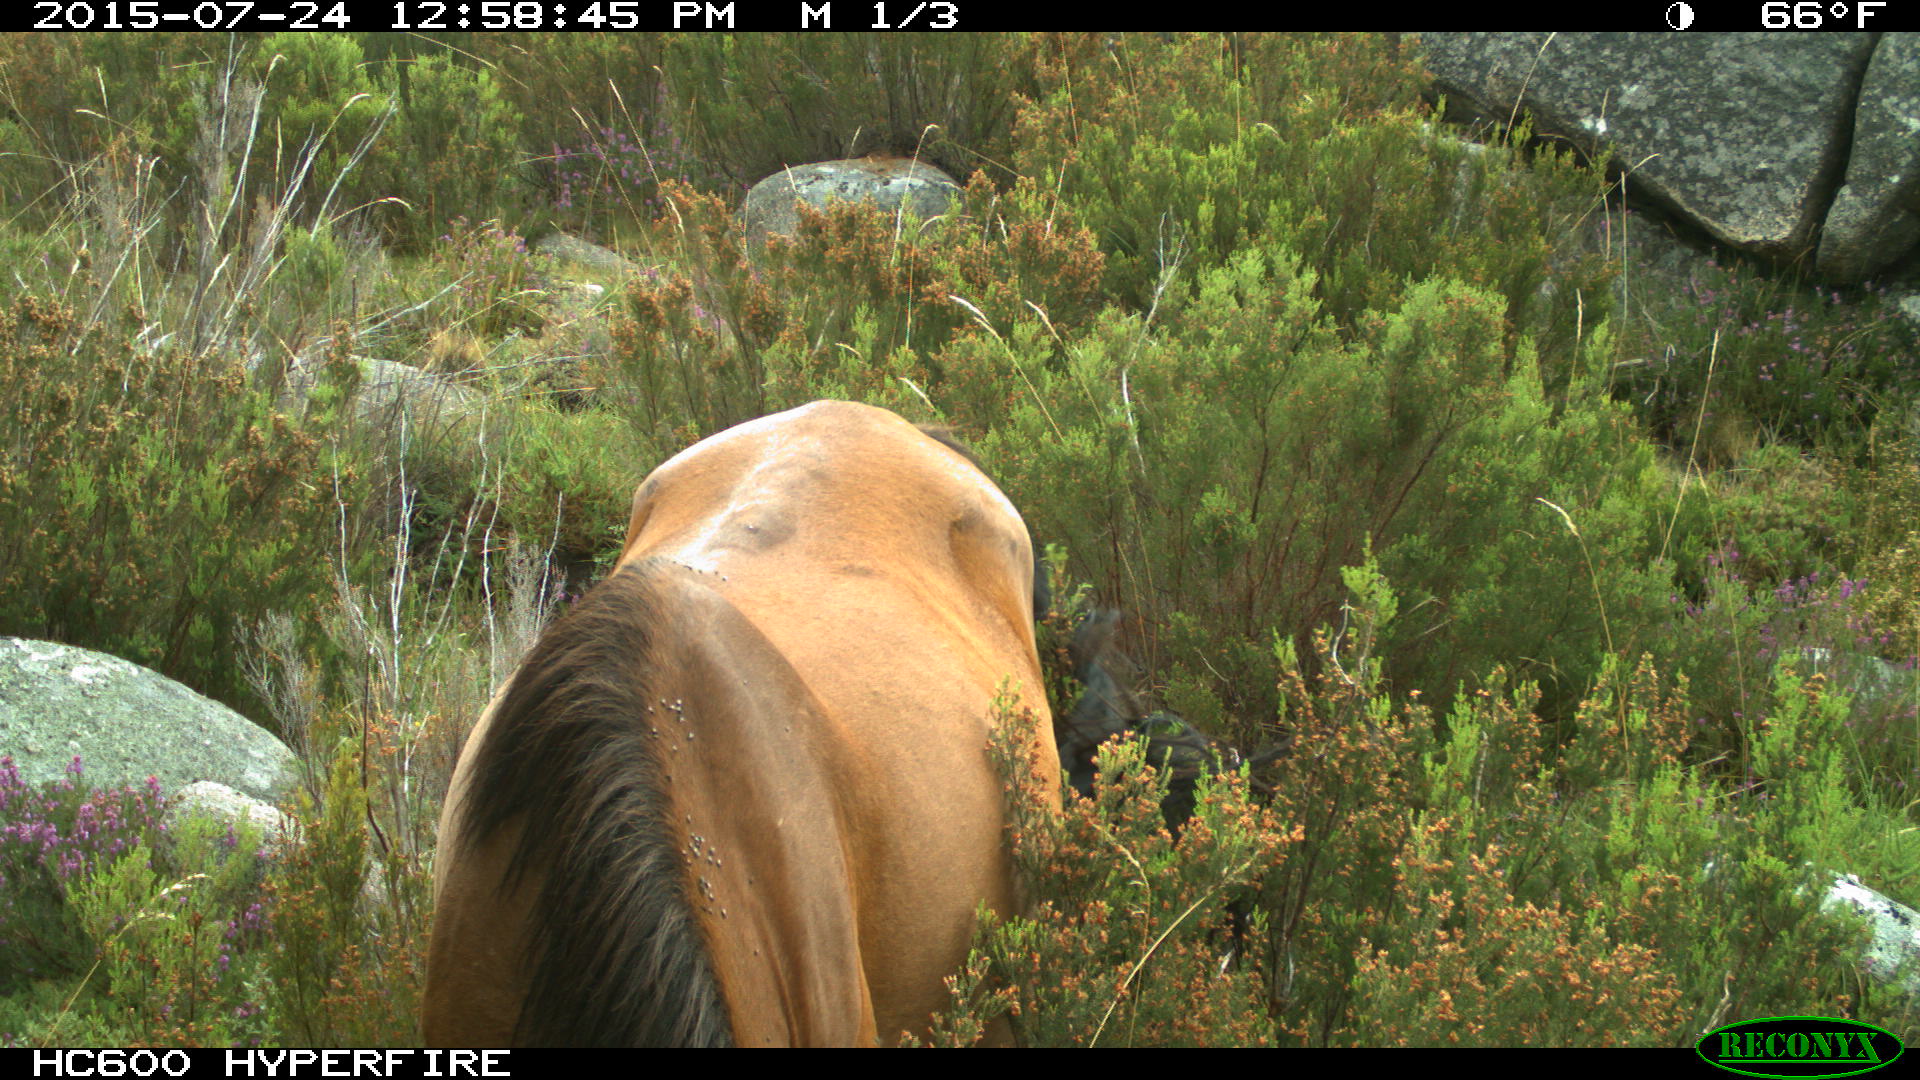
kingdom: Animalia
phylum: Chordata
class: Mammalia
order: Perissodactyla
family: Equidae
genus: Equus
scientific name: Equus caballus
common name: Horse
